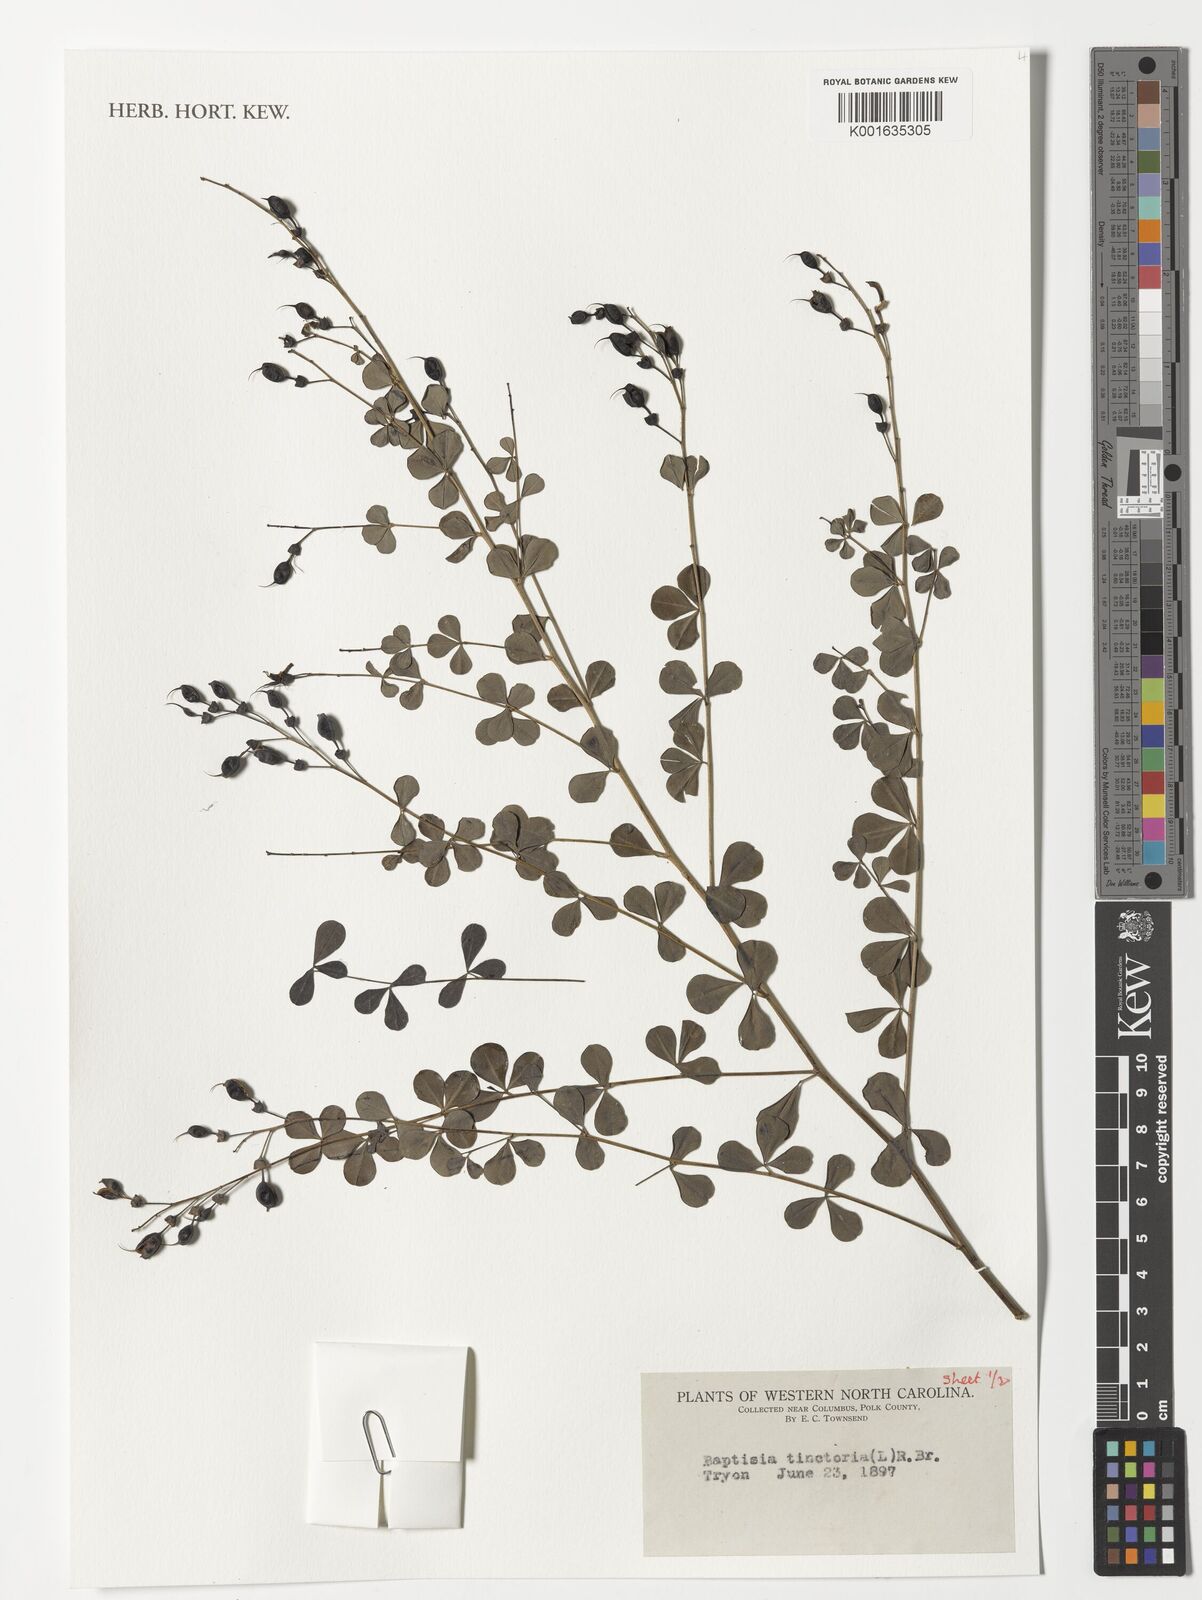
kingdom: Plantae
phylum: Tracheophyta
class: Magnoliopsida
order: Fabales
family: Fabaceae
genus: Baptisia
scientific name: Baptisia tinctoria
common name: Wild indigo
